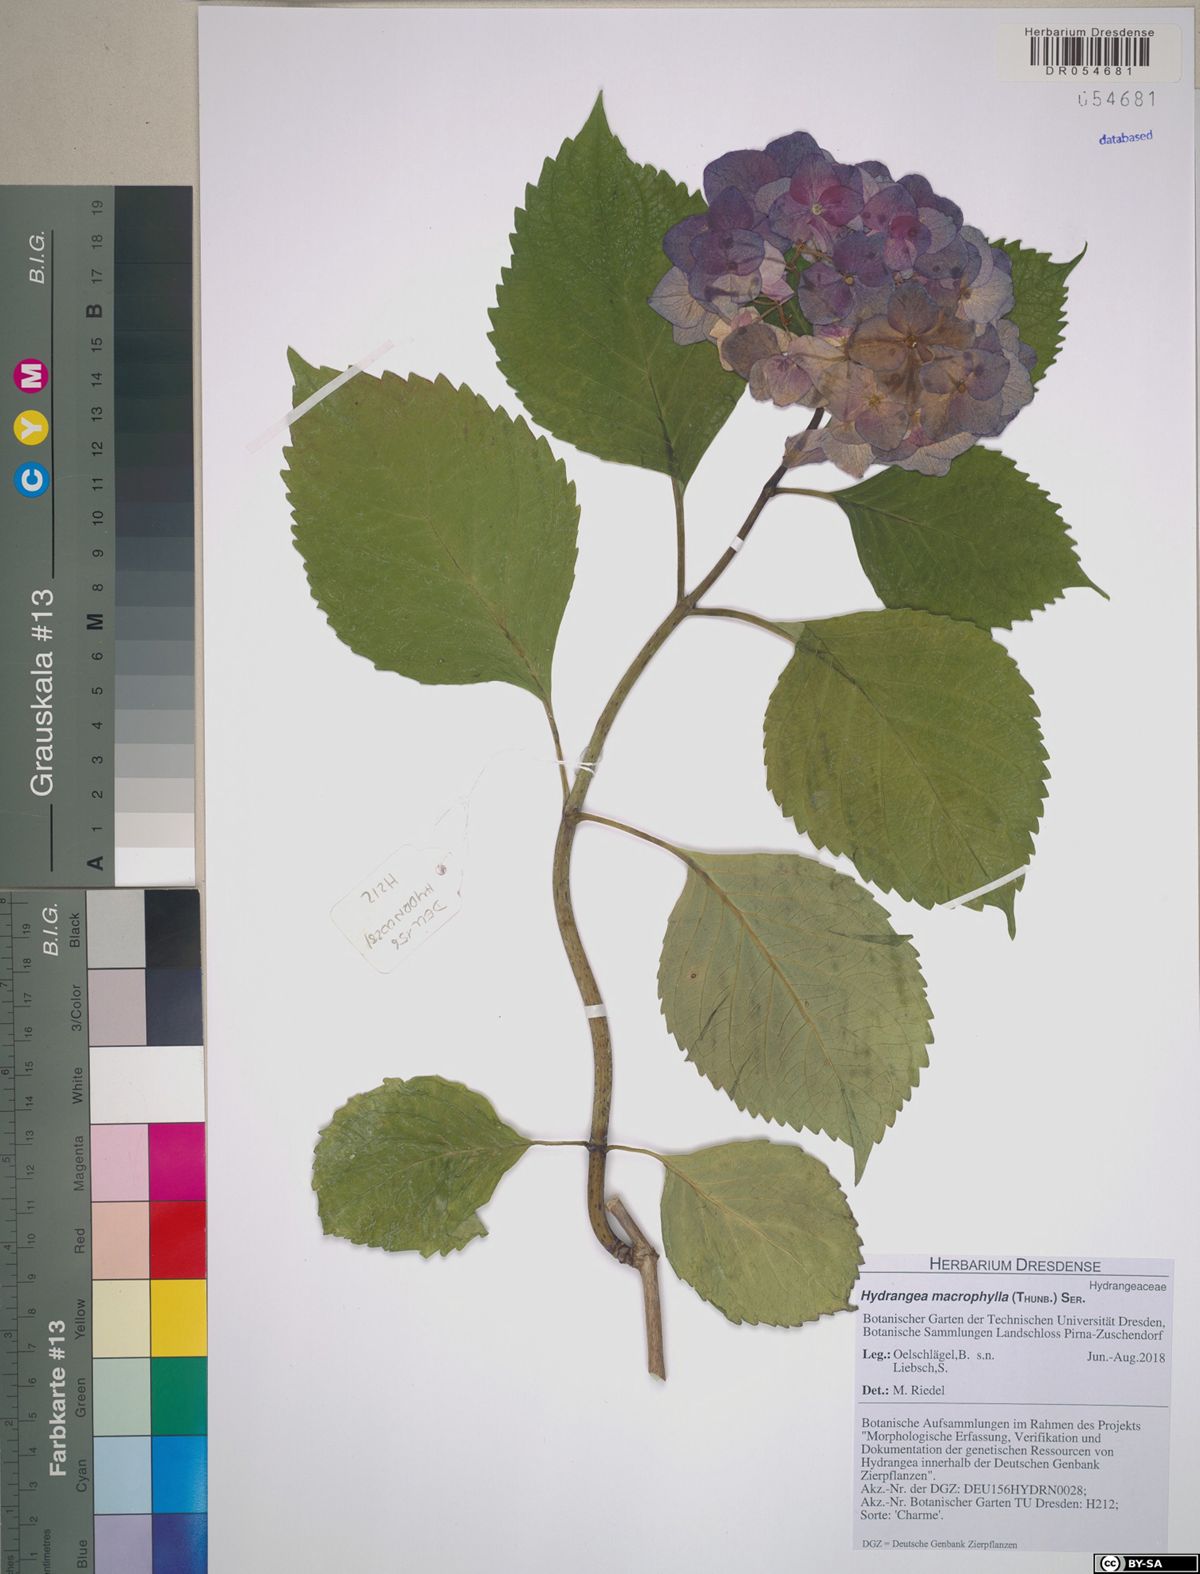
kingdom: Plantae
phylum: Tracheophyta
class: Magnoliopsida
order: Cornales
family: Hydrangeaceae
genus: Hydrangea
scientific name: Hydrangea macrophylla
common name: Hydrangea
